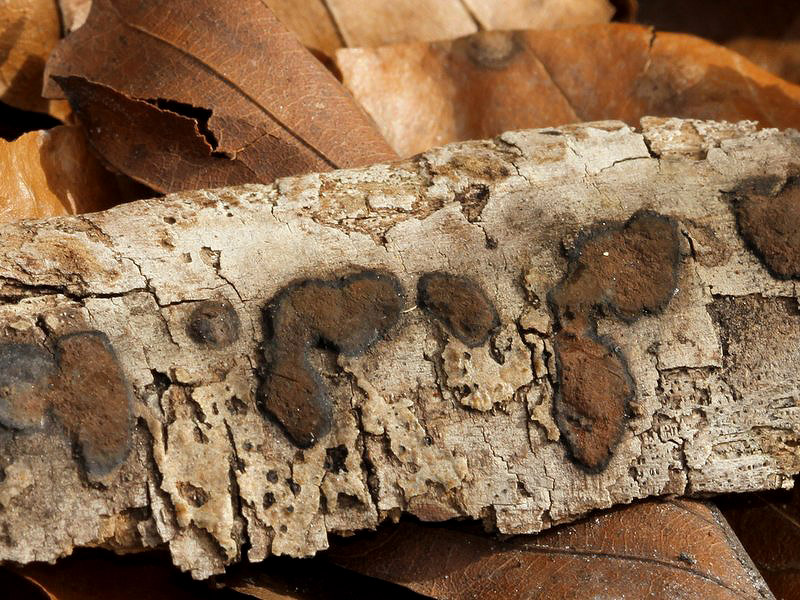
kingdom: Fungi
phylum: Ascomycota
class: Sordariomycetes
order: Xylariales
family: Hypoxylaceae
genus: Hypoxylon
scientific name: Hypoxylon petriniae
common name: nedsænket kulbær
